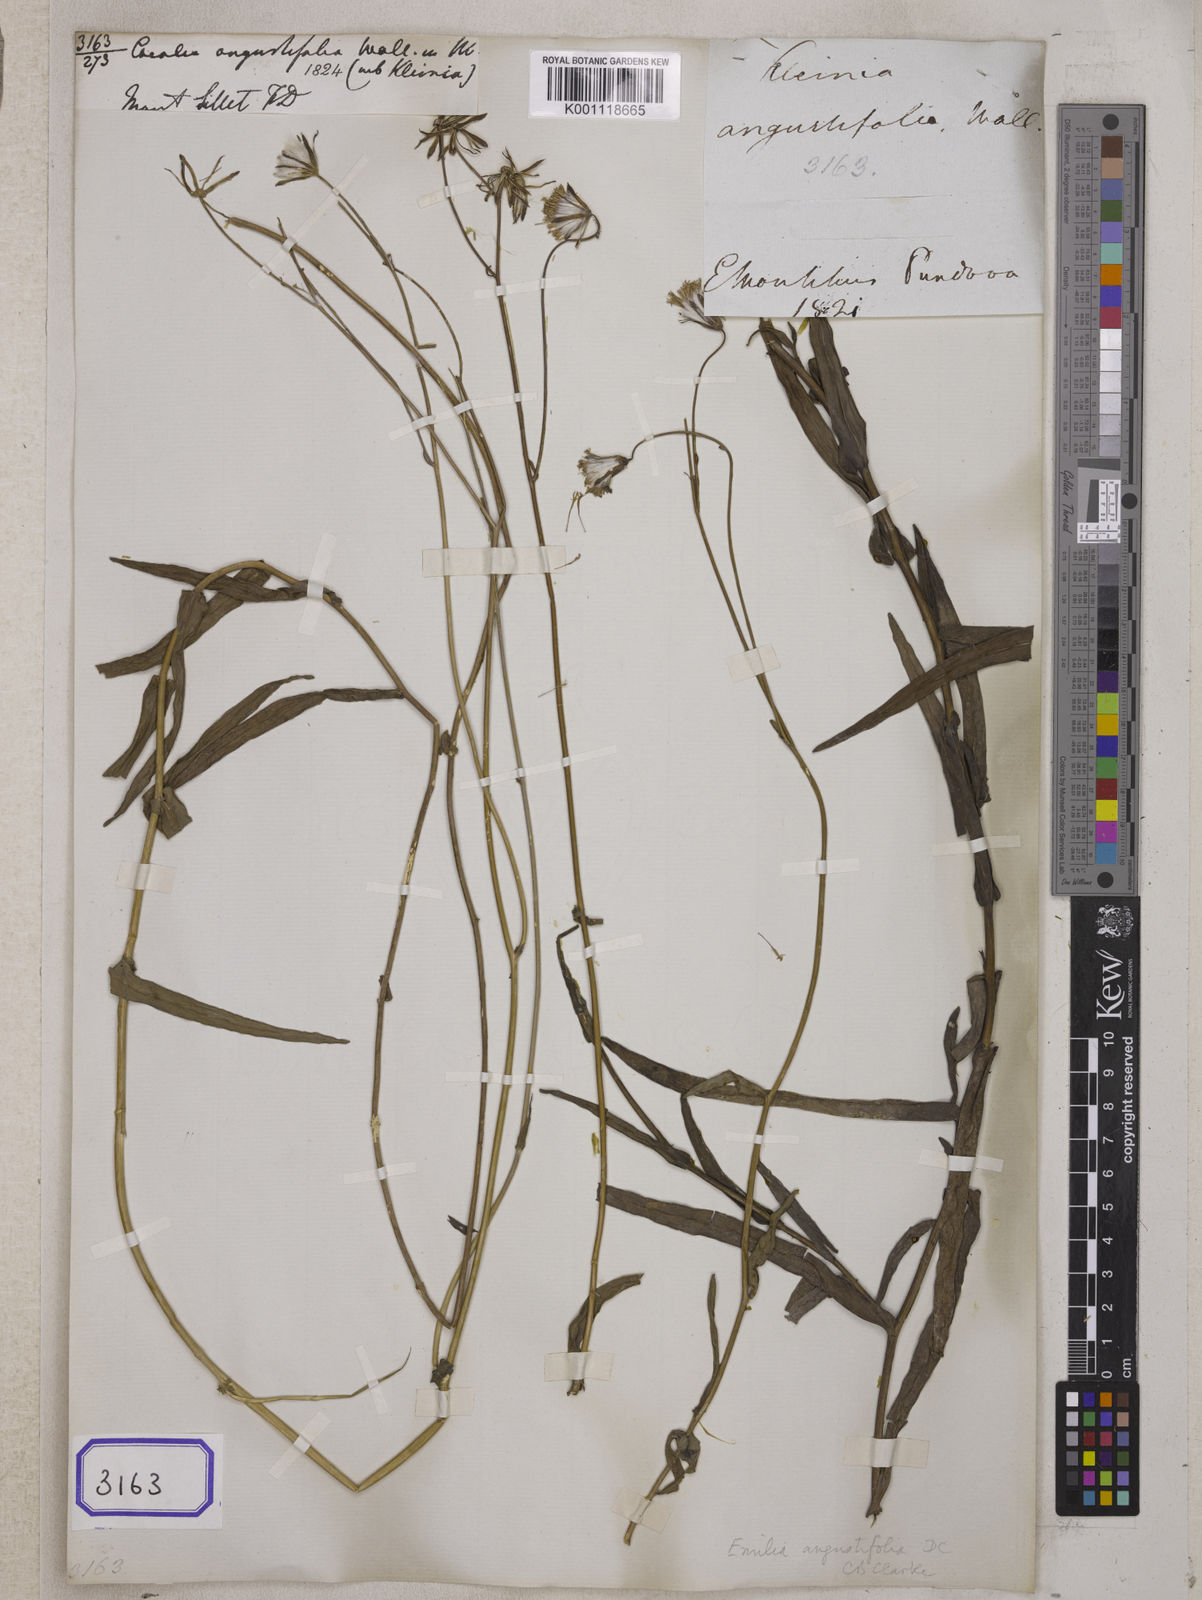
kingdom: Plantae
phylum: Tracheophyta
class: Magnoliopsida
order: Asterales
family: Asteraceae
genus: Emilia
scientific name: Emilia prenanthoidea
